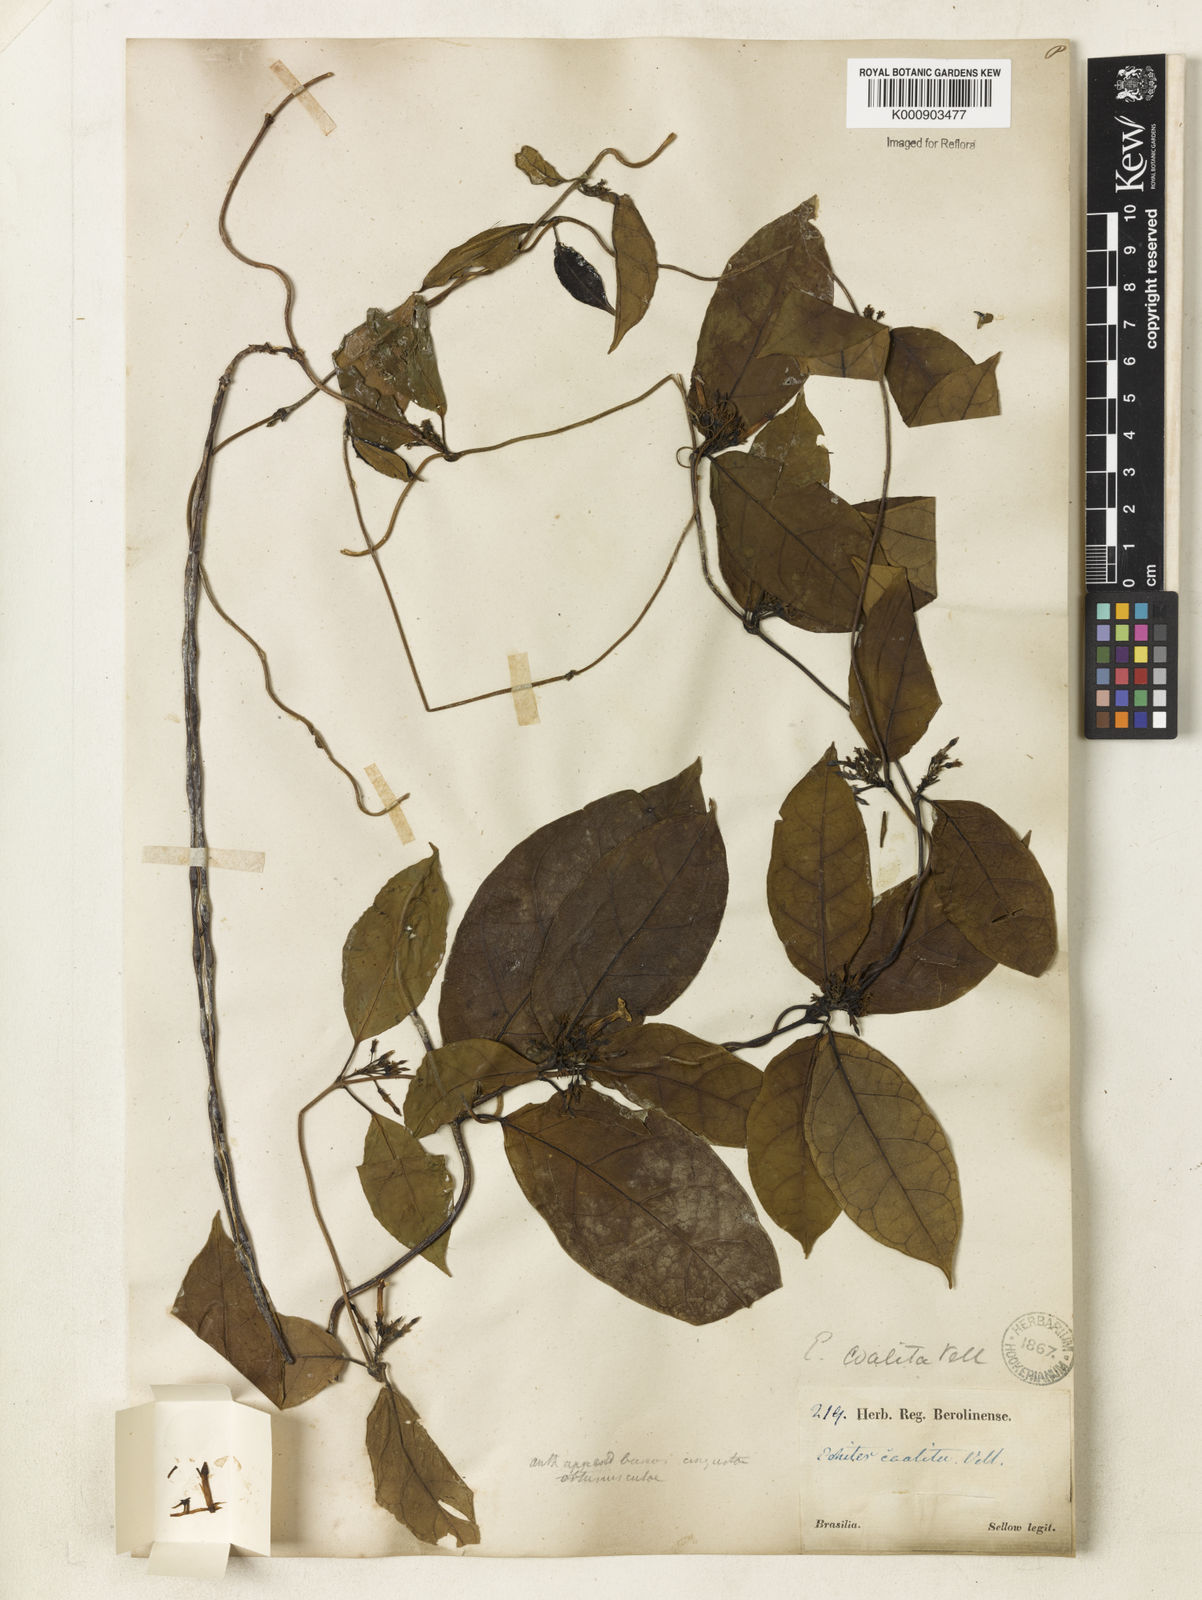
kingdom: Plantae
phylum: Tracheophyta
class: Magnoliopsida
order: Gentianales
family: Apocynaceae
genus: Prestonia
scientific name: Prestonia coalita
